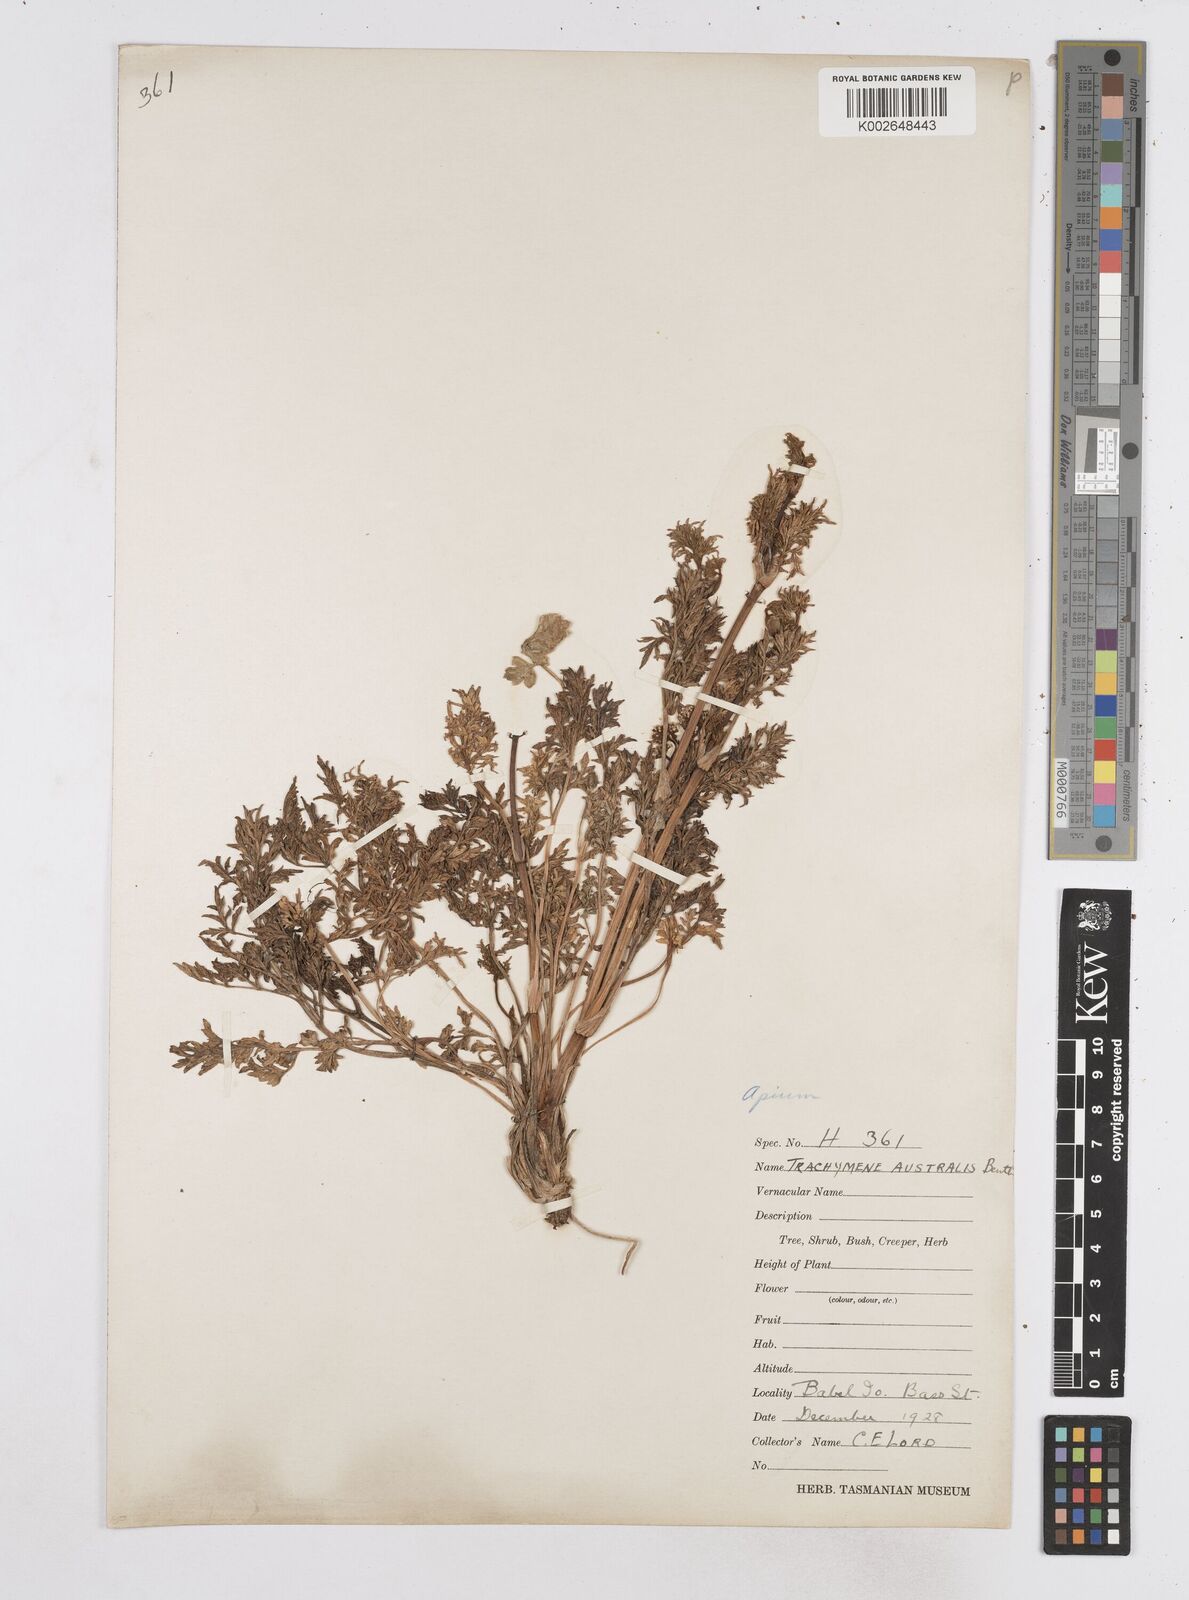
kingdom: Plantae
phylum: Tracheophyta
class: Magnoliopsida
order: Apiales
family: Apiaceae
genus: Apium
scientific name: Apium insulare
